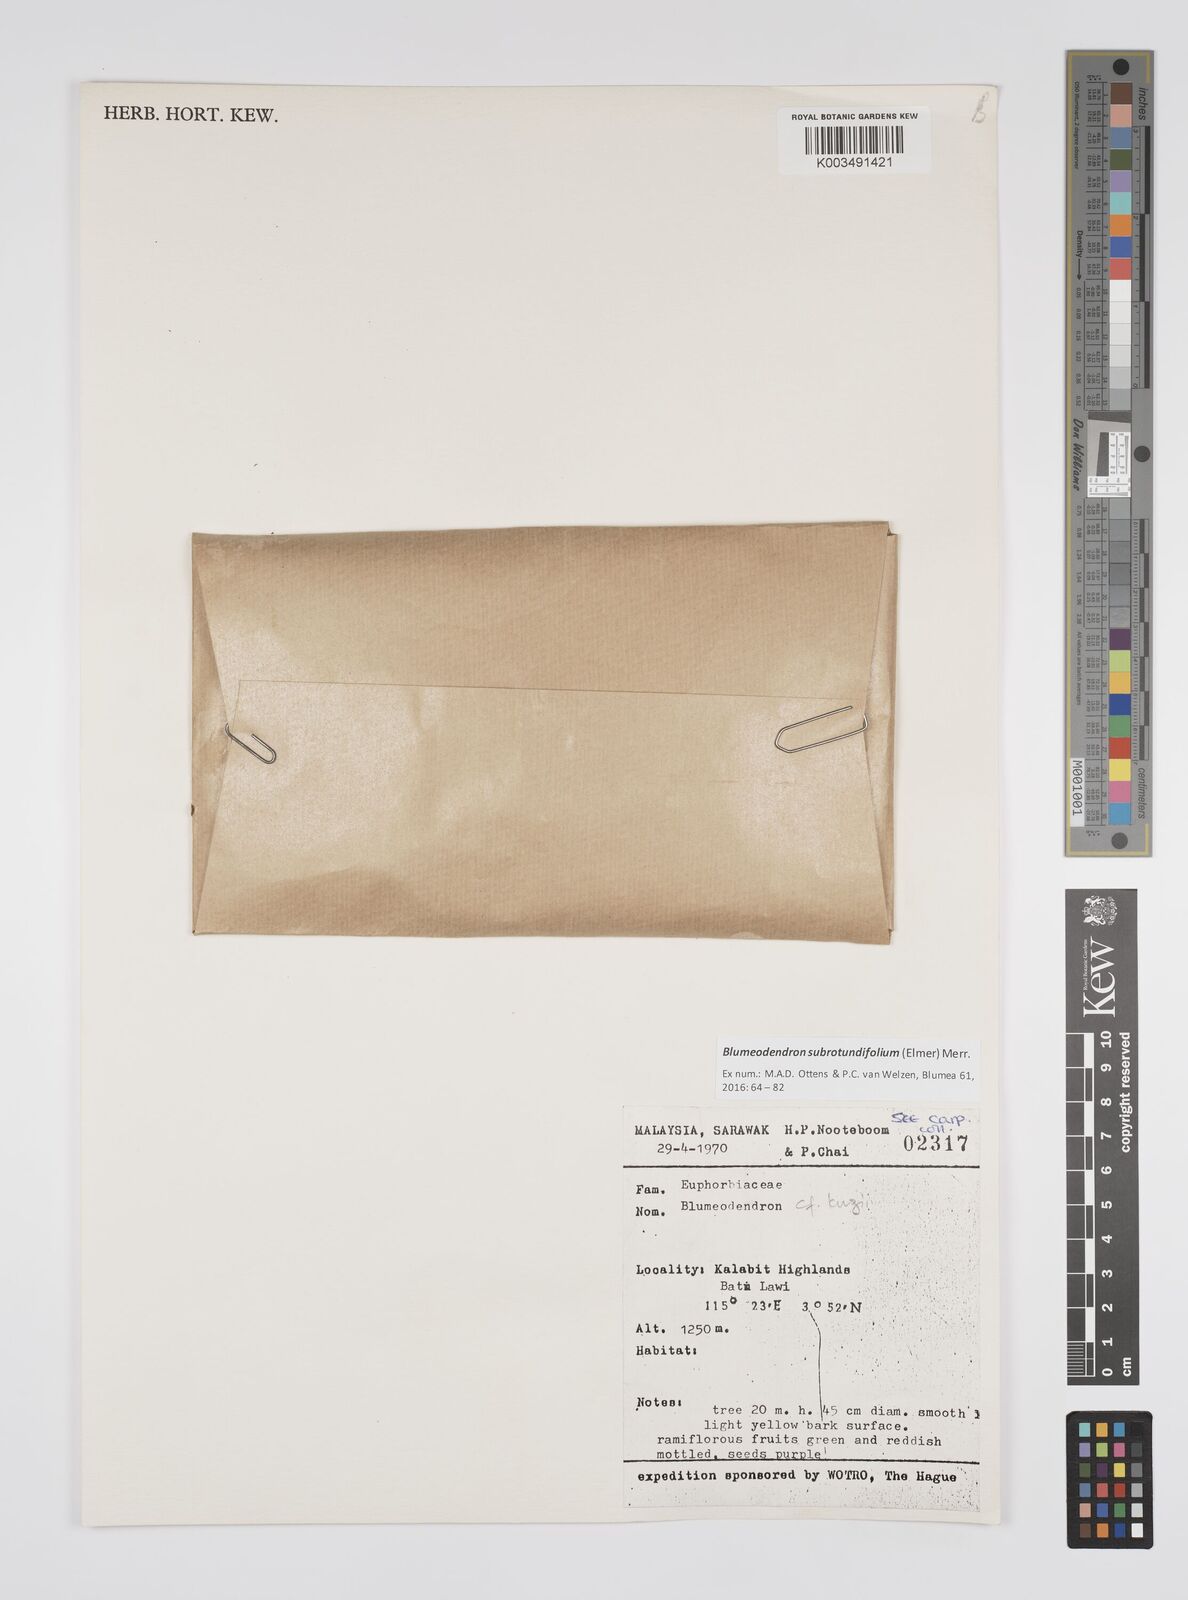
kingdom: Plantae
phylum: Tracheophyta
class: Magnoliopsida
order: Malpighiales
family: Euphorbiaceae
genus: Blumeodendron
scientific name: Blumeodendron subrotundifolium
